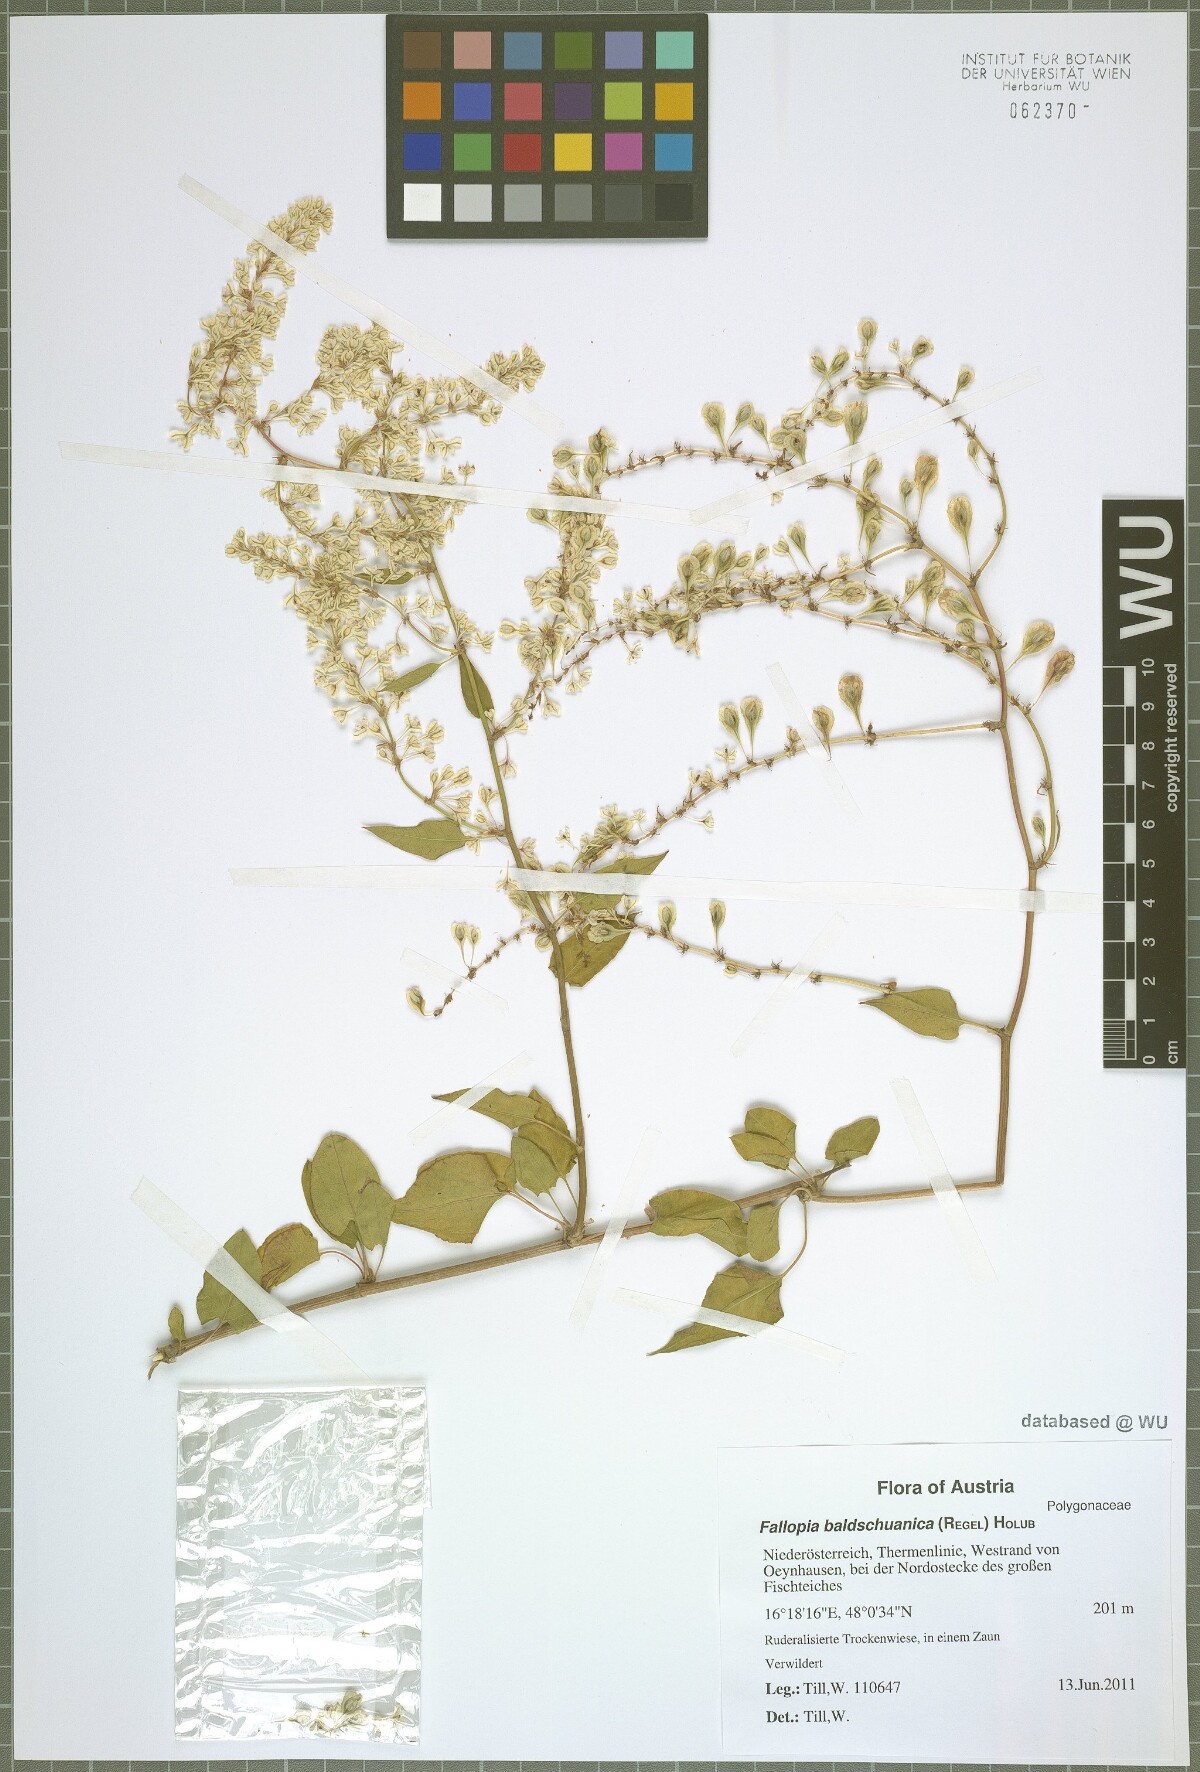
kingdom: Plantae
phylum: Tracheophyta
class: Magnoliopsida
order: Caryophyllales
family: Polygonaceae
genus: Fallopia
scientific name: Fallopia baldschuanica
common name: Russian-vine
